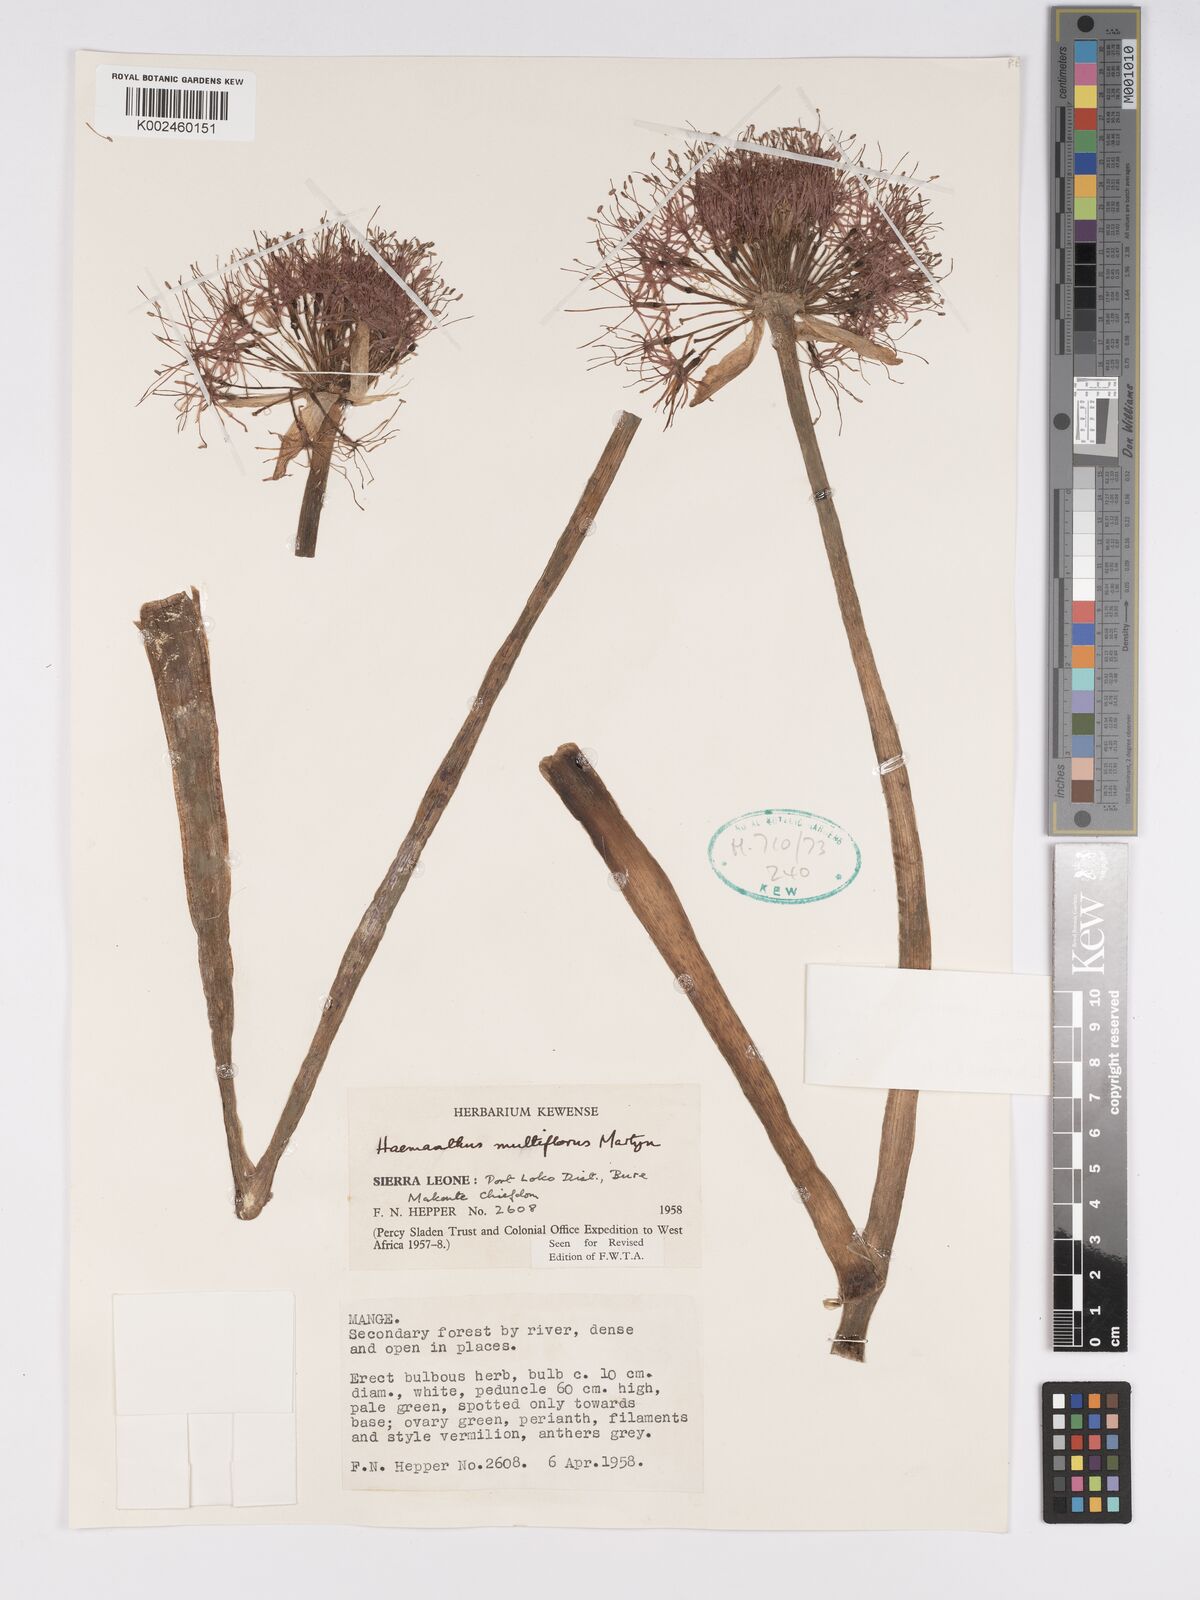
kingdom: Plantae
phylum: Tracheophyta
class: Liliopsida
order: Asparagales
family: Amaryllidaceae
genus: Scadoxus
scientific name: Scadoxus multiflorus
